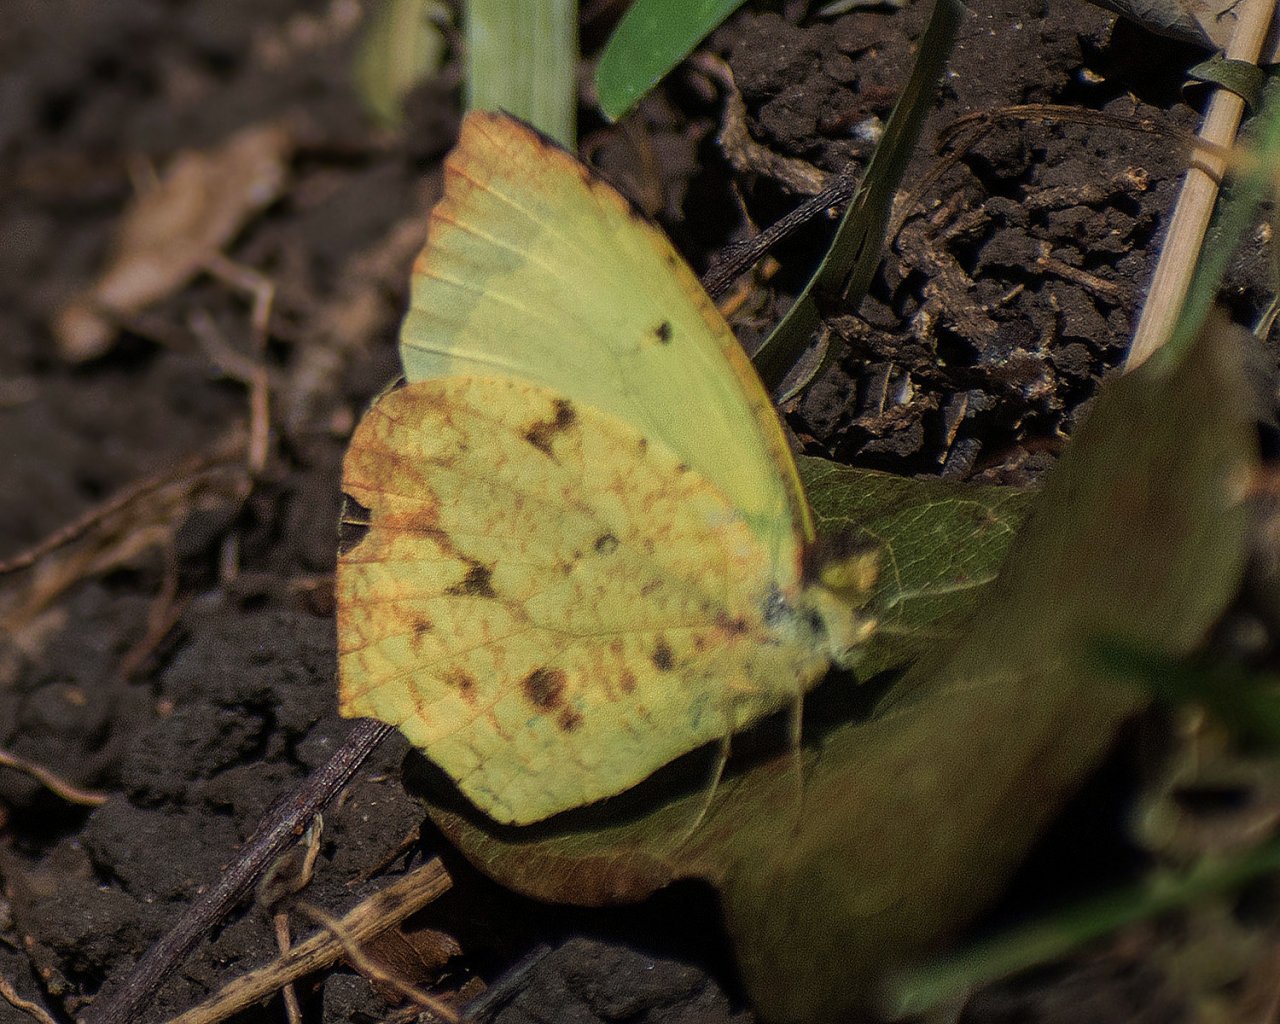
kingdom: Animalia
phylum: Arthropoda
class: Insecta
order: Lepidoptera
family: Pieridae
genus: Eurema
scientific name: Eurema salome
